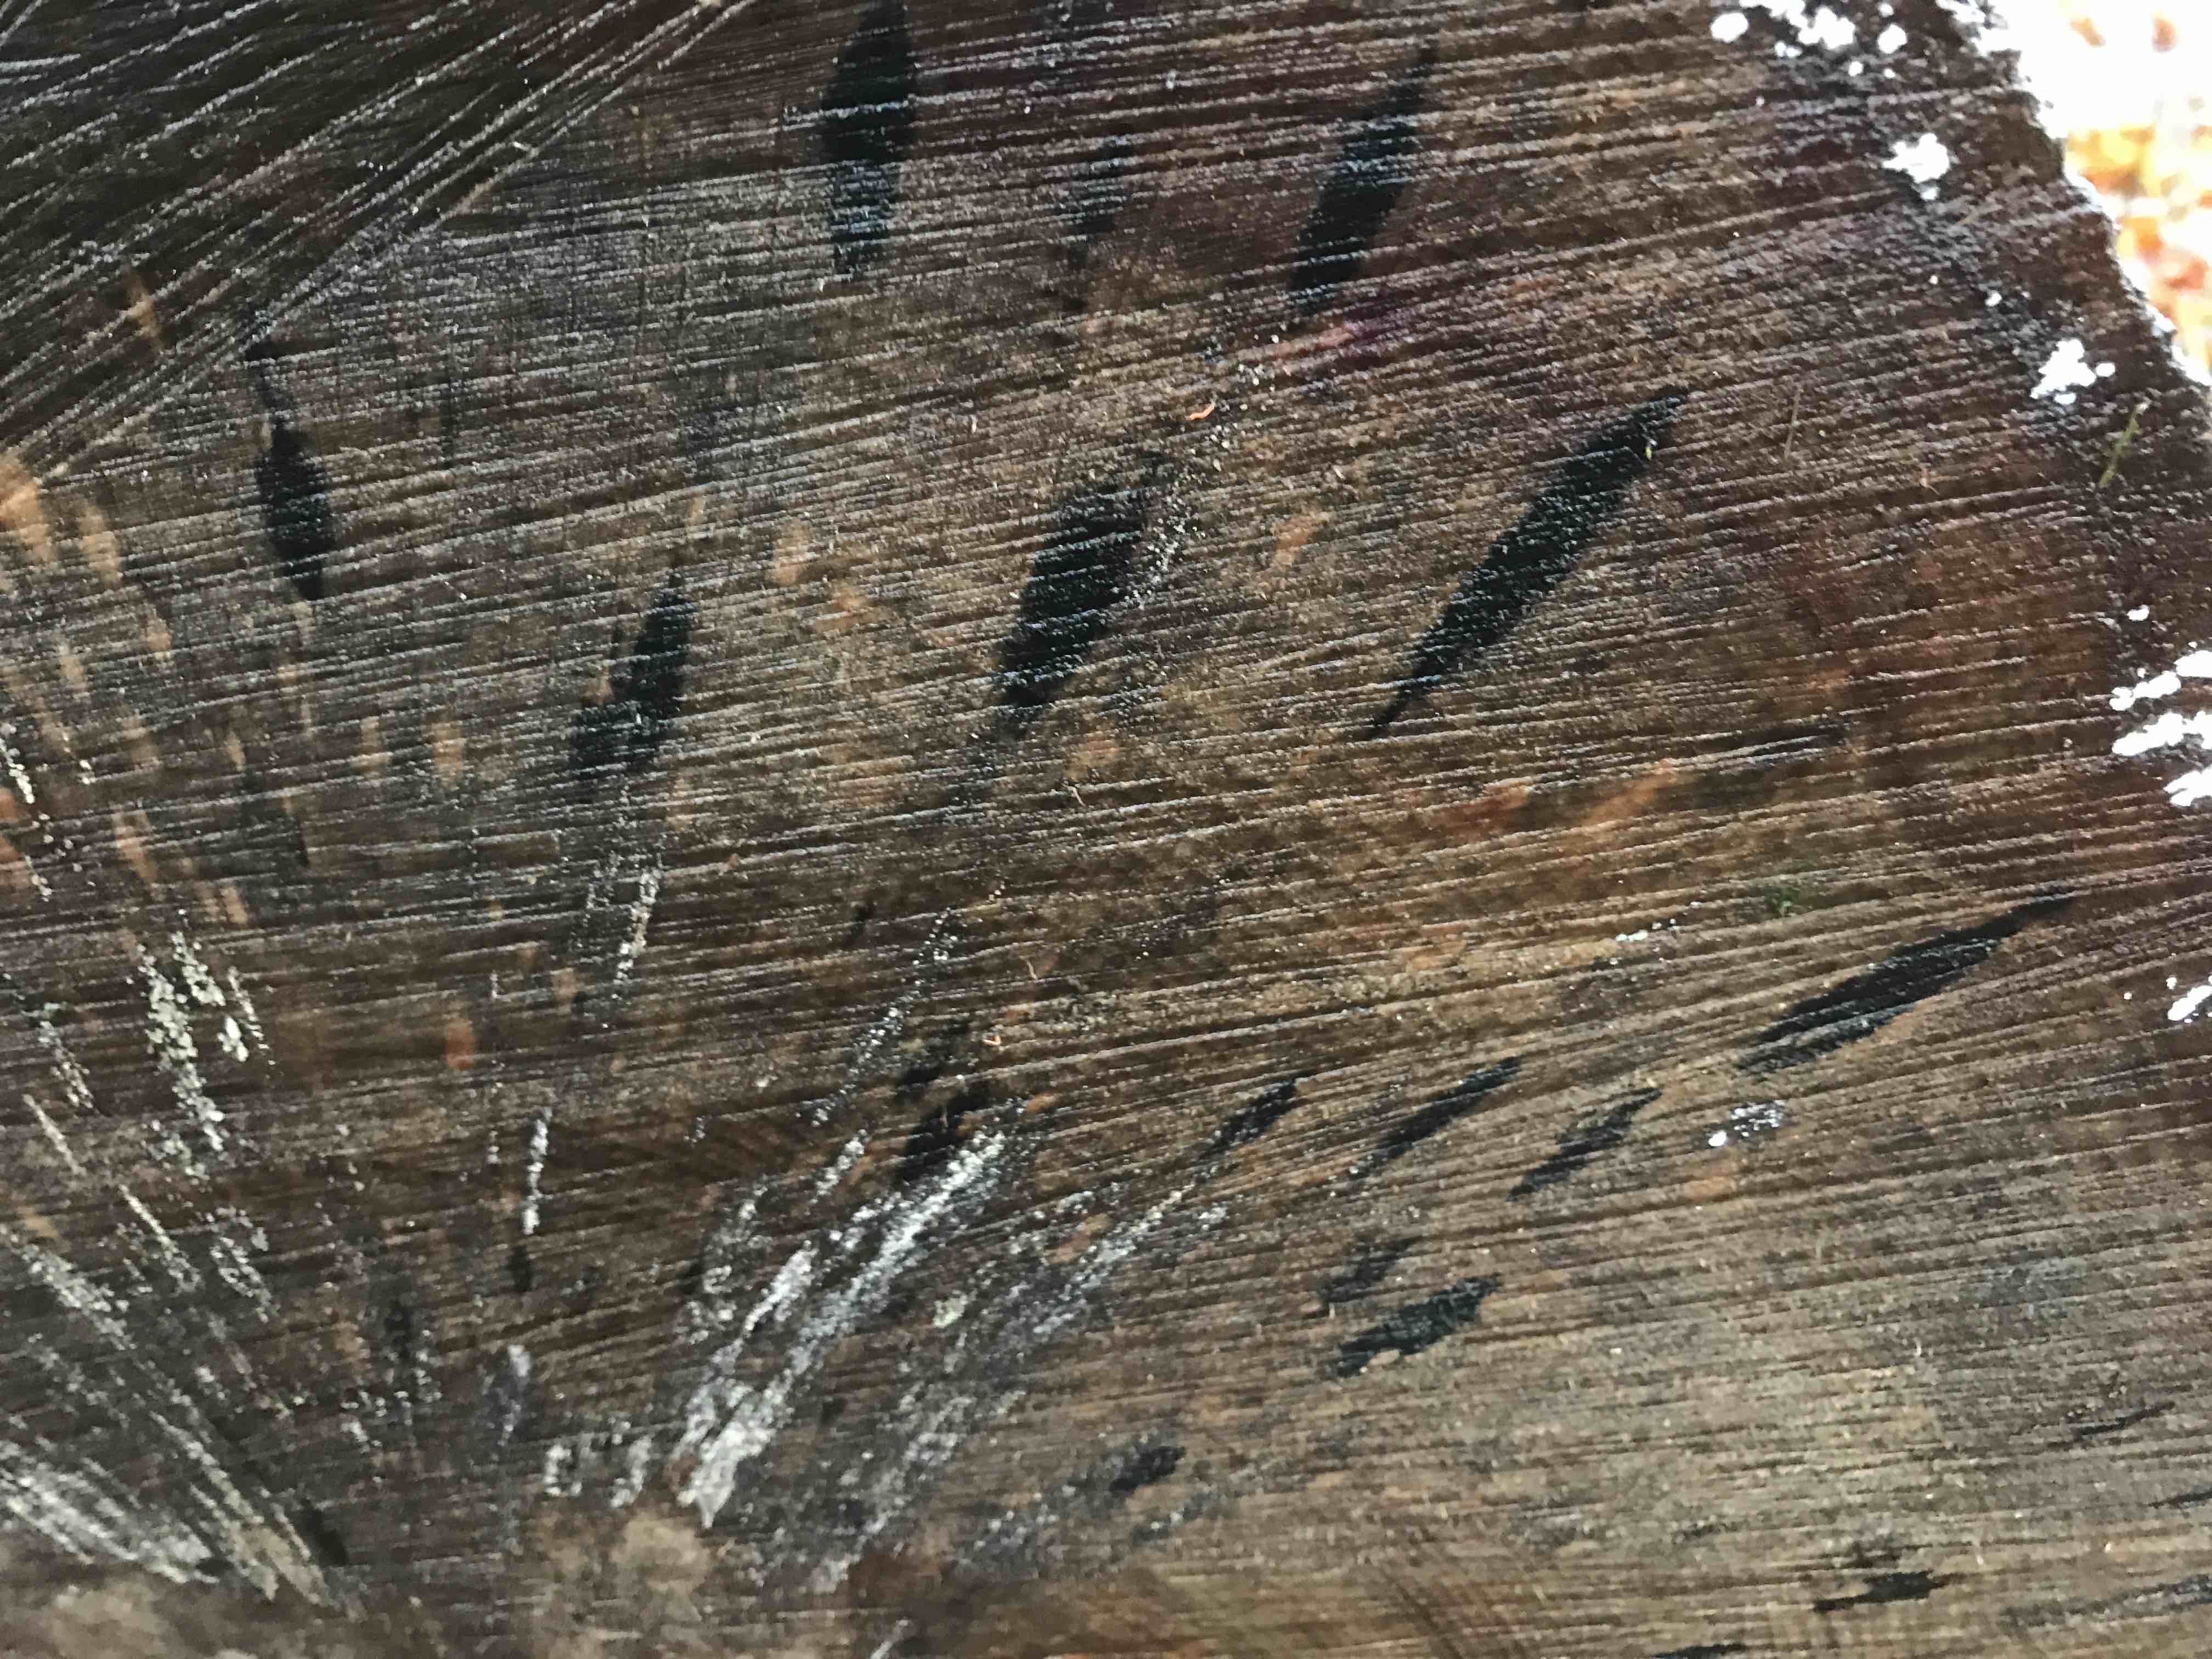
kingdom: Fungi
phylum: Ascomycota
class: Leotiomycetes
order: Helotiales
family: Helotiaceae
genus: Bispora
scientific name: Bispora pallescens
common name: måtte-snitskive
